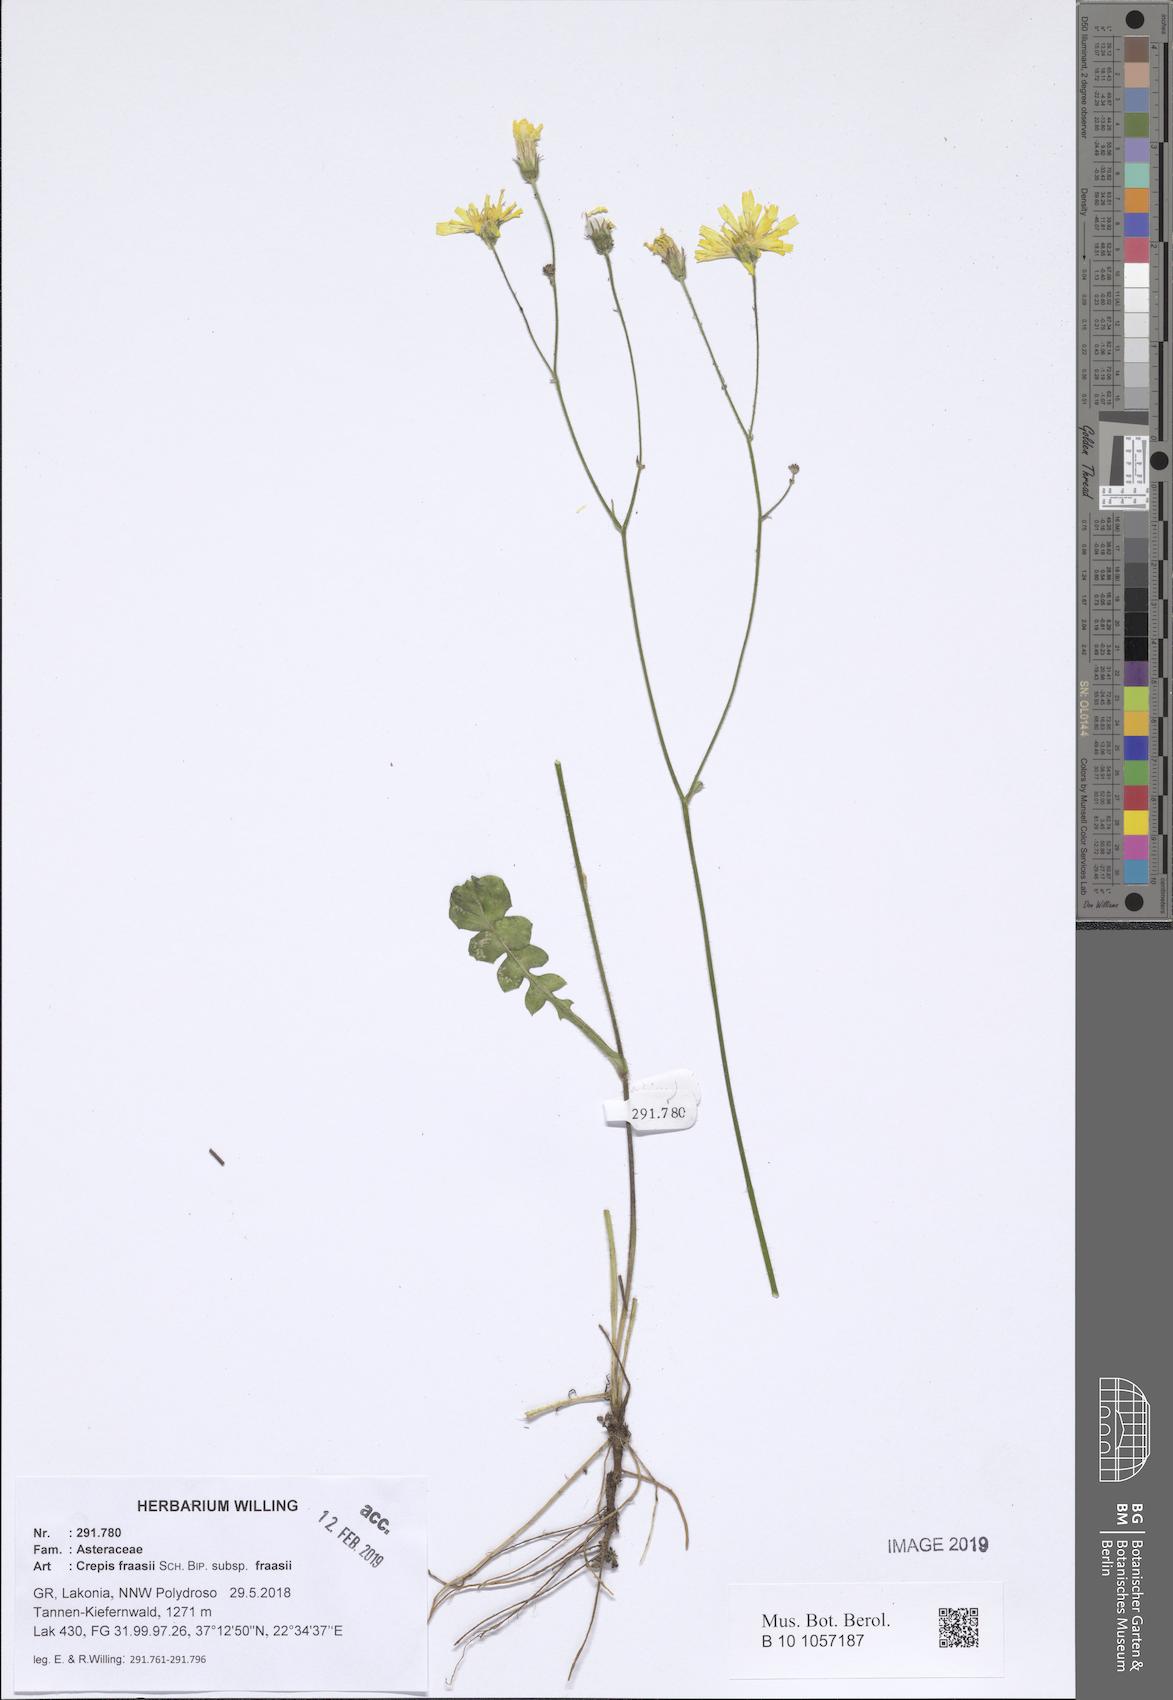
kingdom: Plantae
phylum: Tracheophyta
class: Magnoliopsida
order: Asterales
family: Asteraceae
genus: Crepis
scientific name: Crepis fraasii
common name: Hawk's-beard
